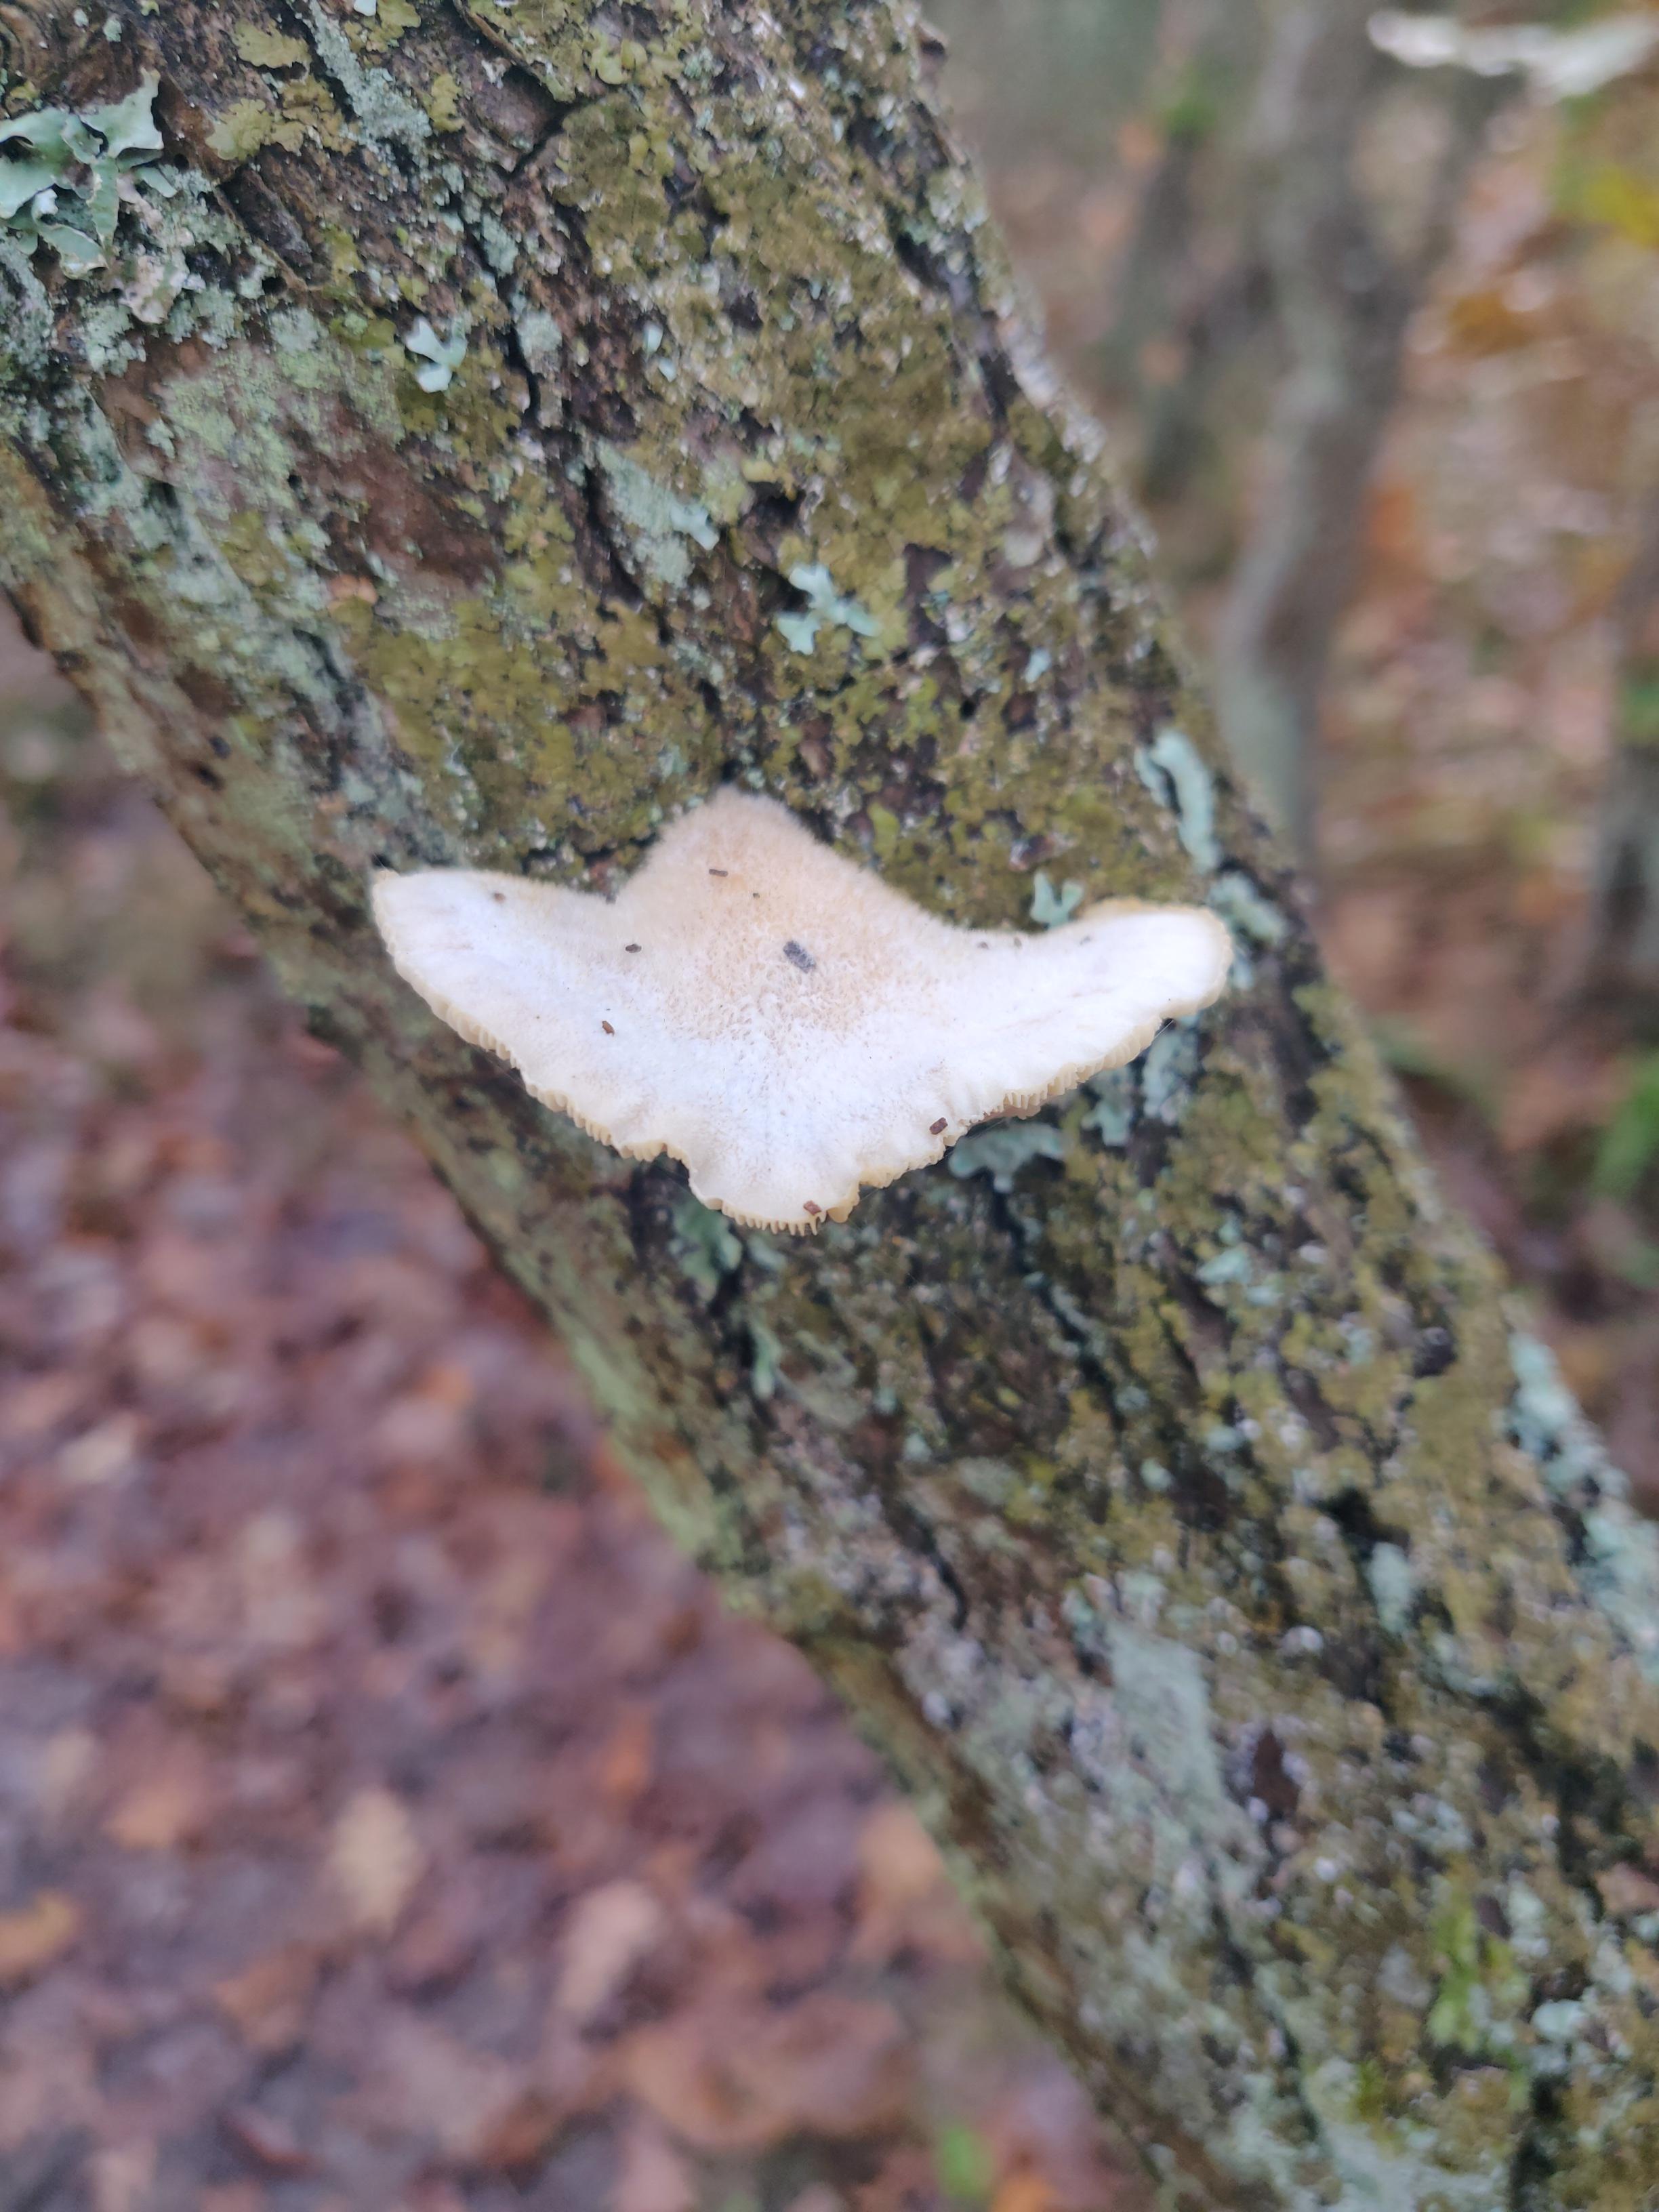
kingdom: Fungi
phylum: Basidiomycota
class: Agaricomycetes
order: Agaricales
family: Pleurotaceae
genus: Hohenbuehelia
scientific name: Hohenbuehelia
